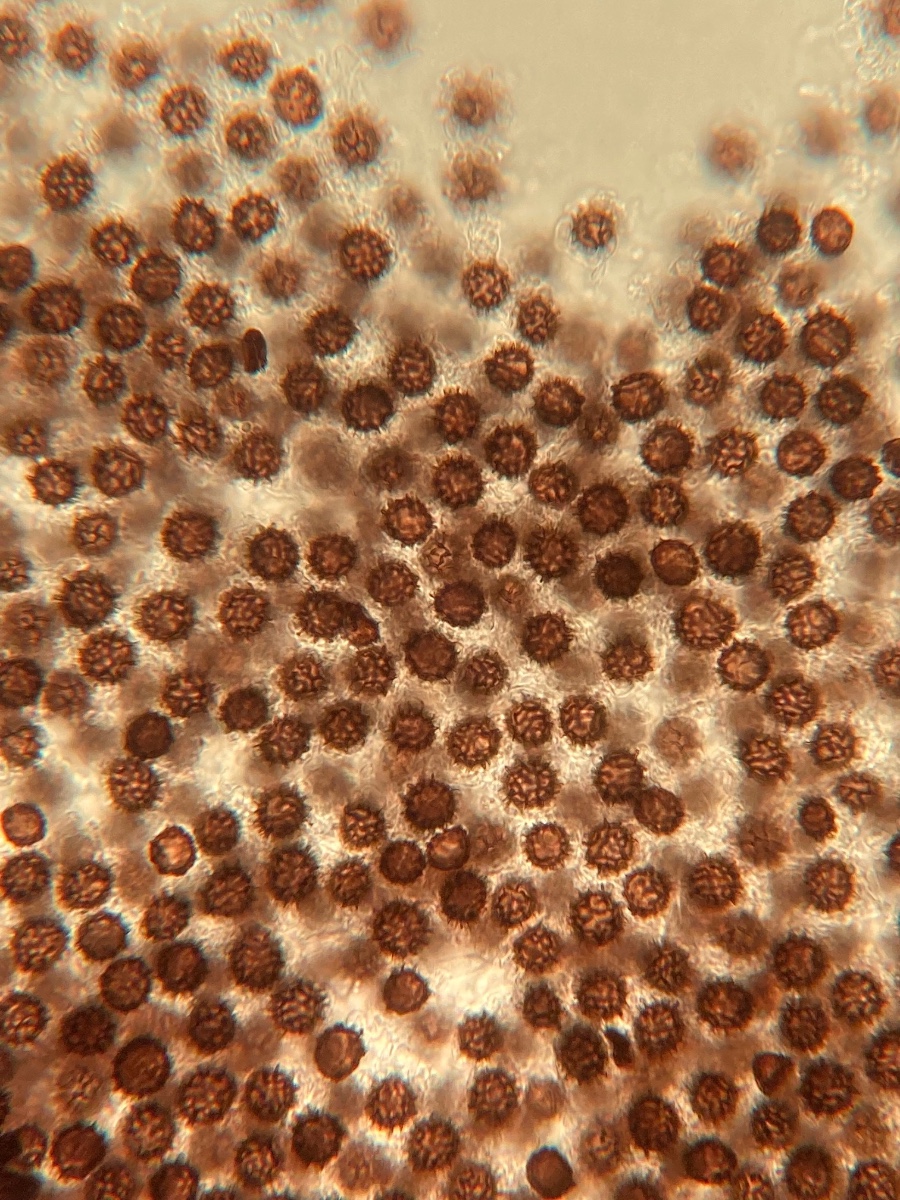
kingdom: Fungi
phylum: Basidiomycota
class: Agaricomycetes
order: Boletales
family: Sclerodermataceae
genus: Scleroderma
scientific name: Scleroderma bovista
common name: bovist-bruskbold
